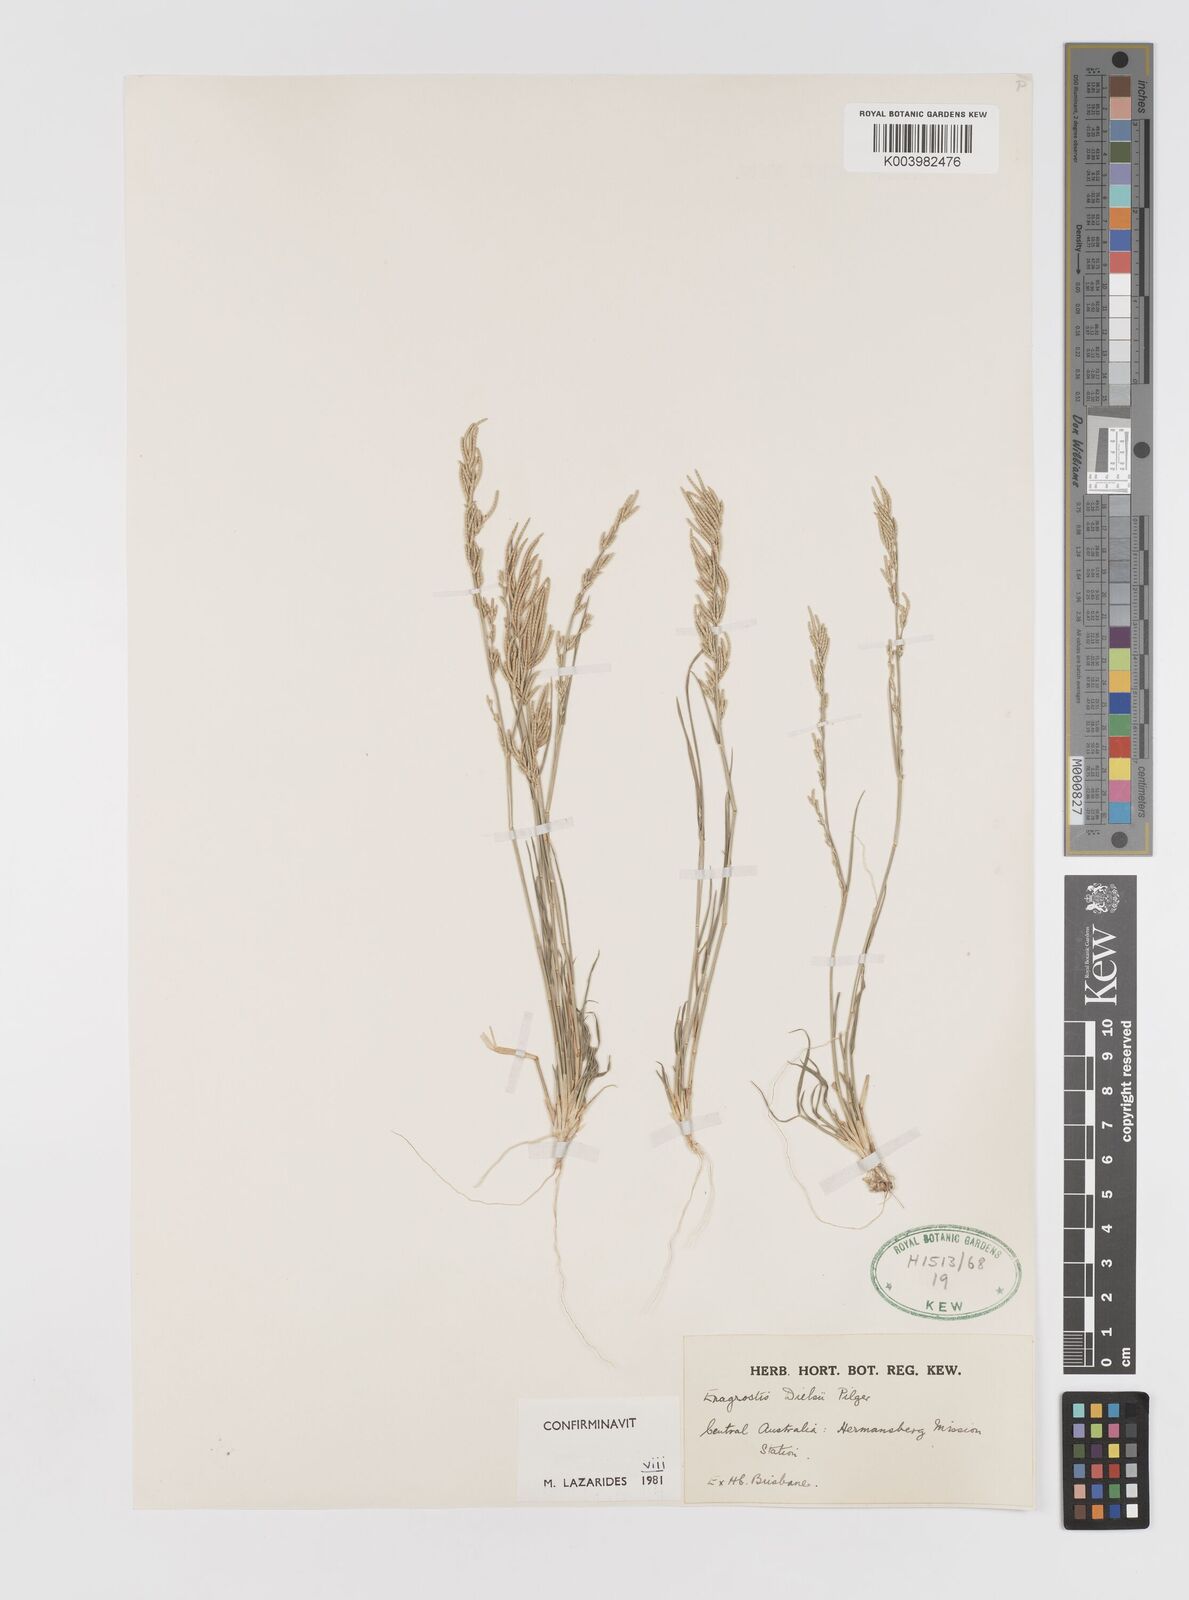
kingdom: Plantae
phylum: Tracheophyta
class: Liliopsida
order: Poales
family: Poaceae
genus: Eragrostis
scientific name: Eragrostis dielsii
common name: Lovegrass
